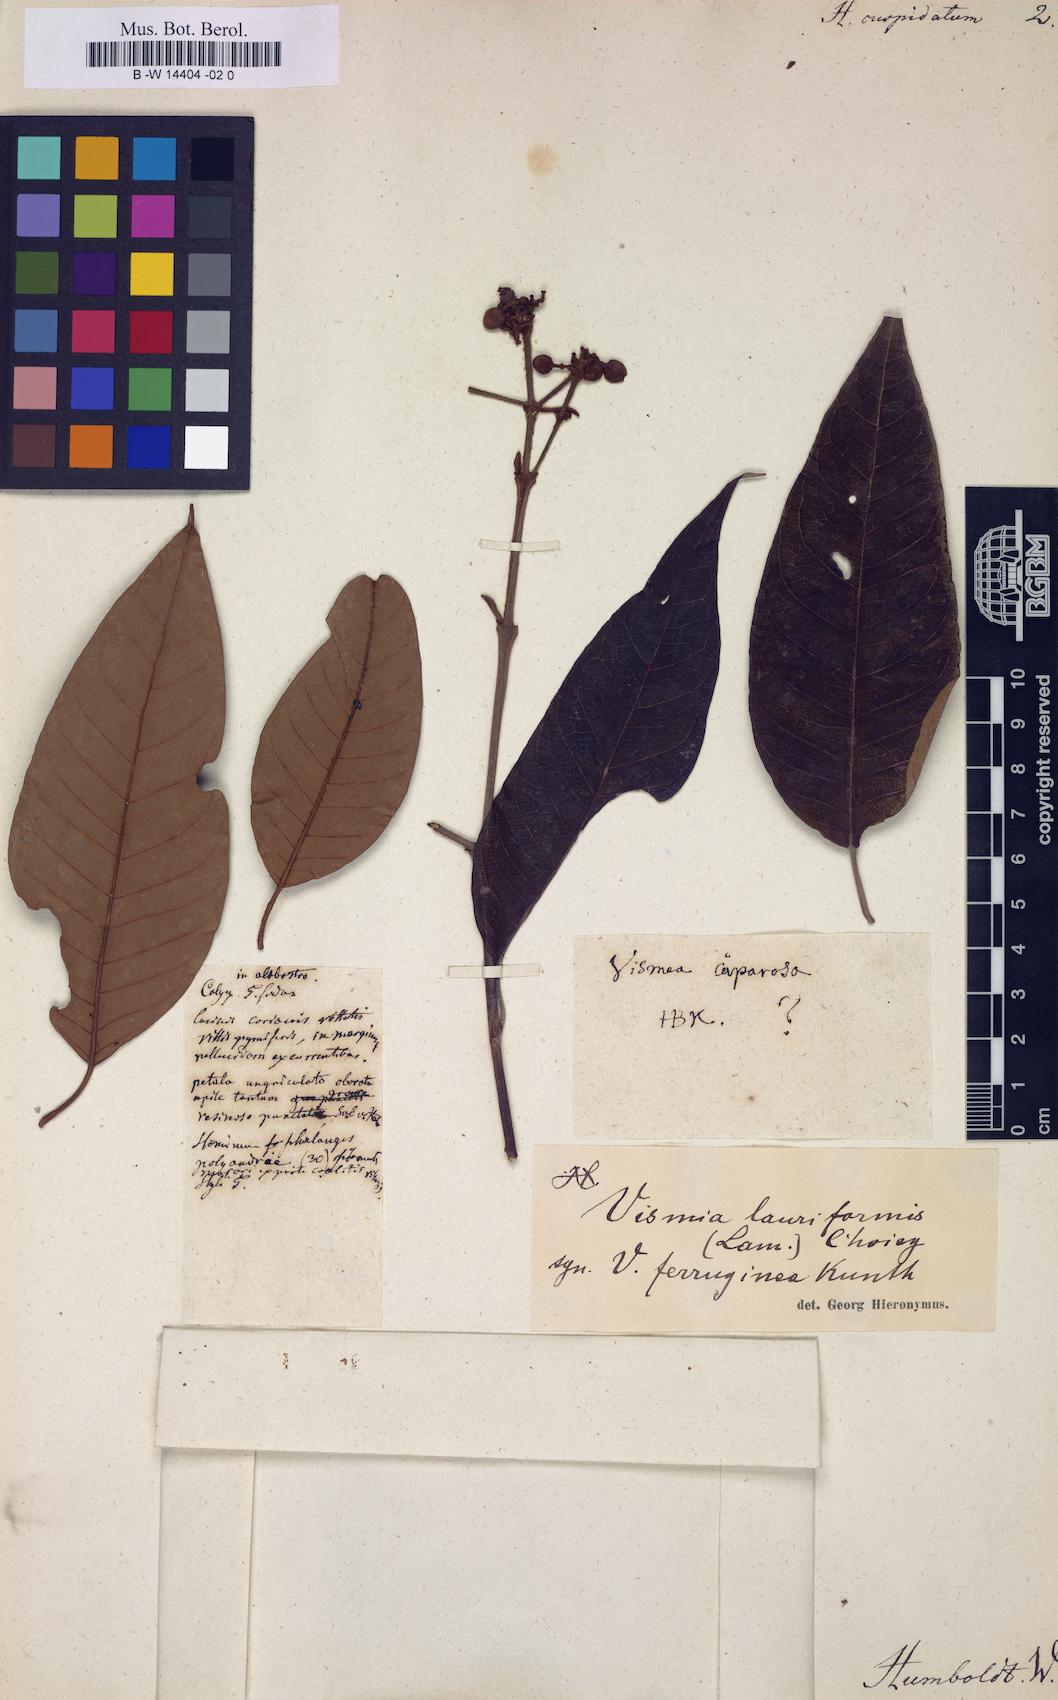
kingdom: Plantae
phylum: Tracheophyta
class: Magnoliopsida
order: Malpighiales
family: Hypericaceae
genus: Vismia
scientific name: Vismia guianensis
